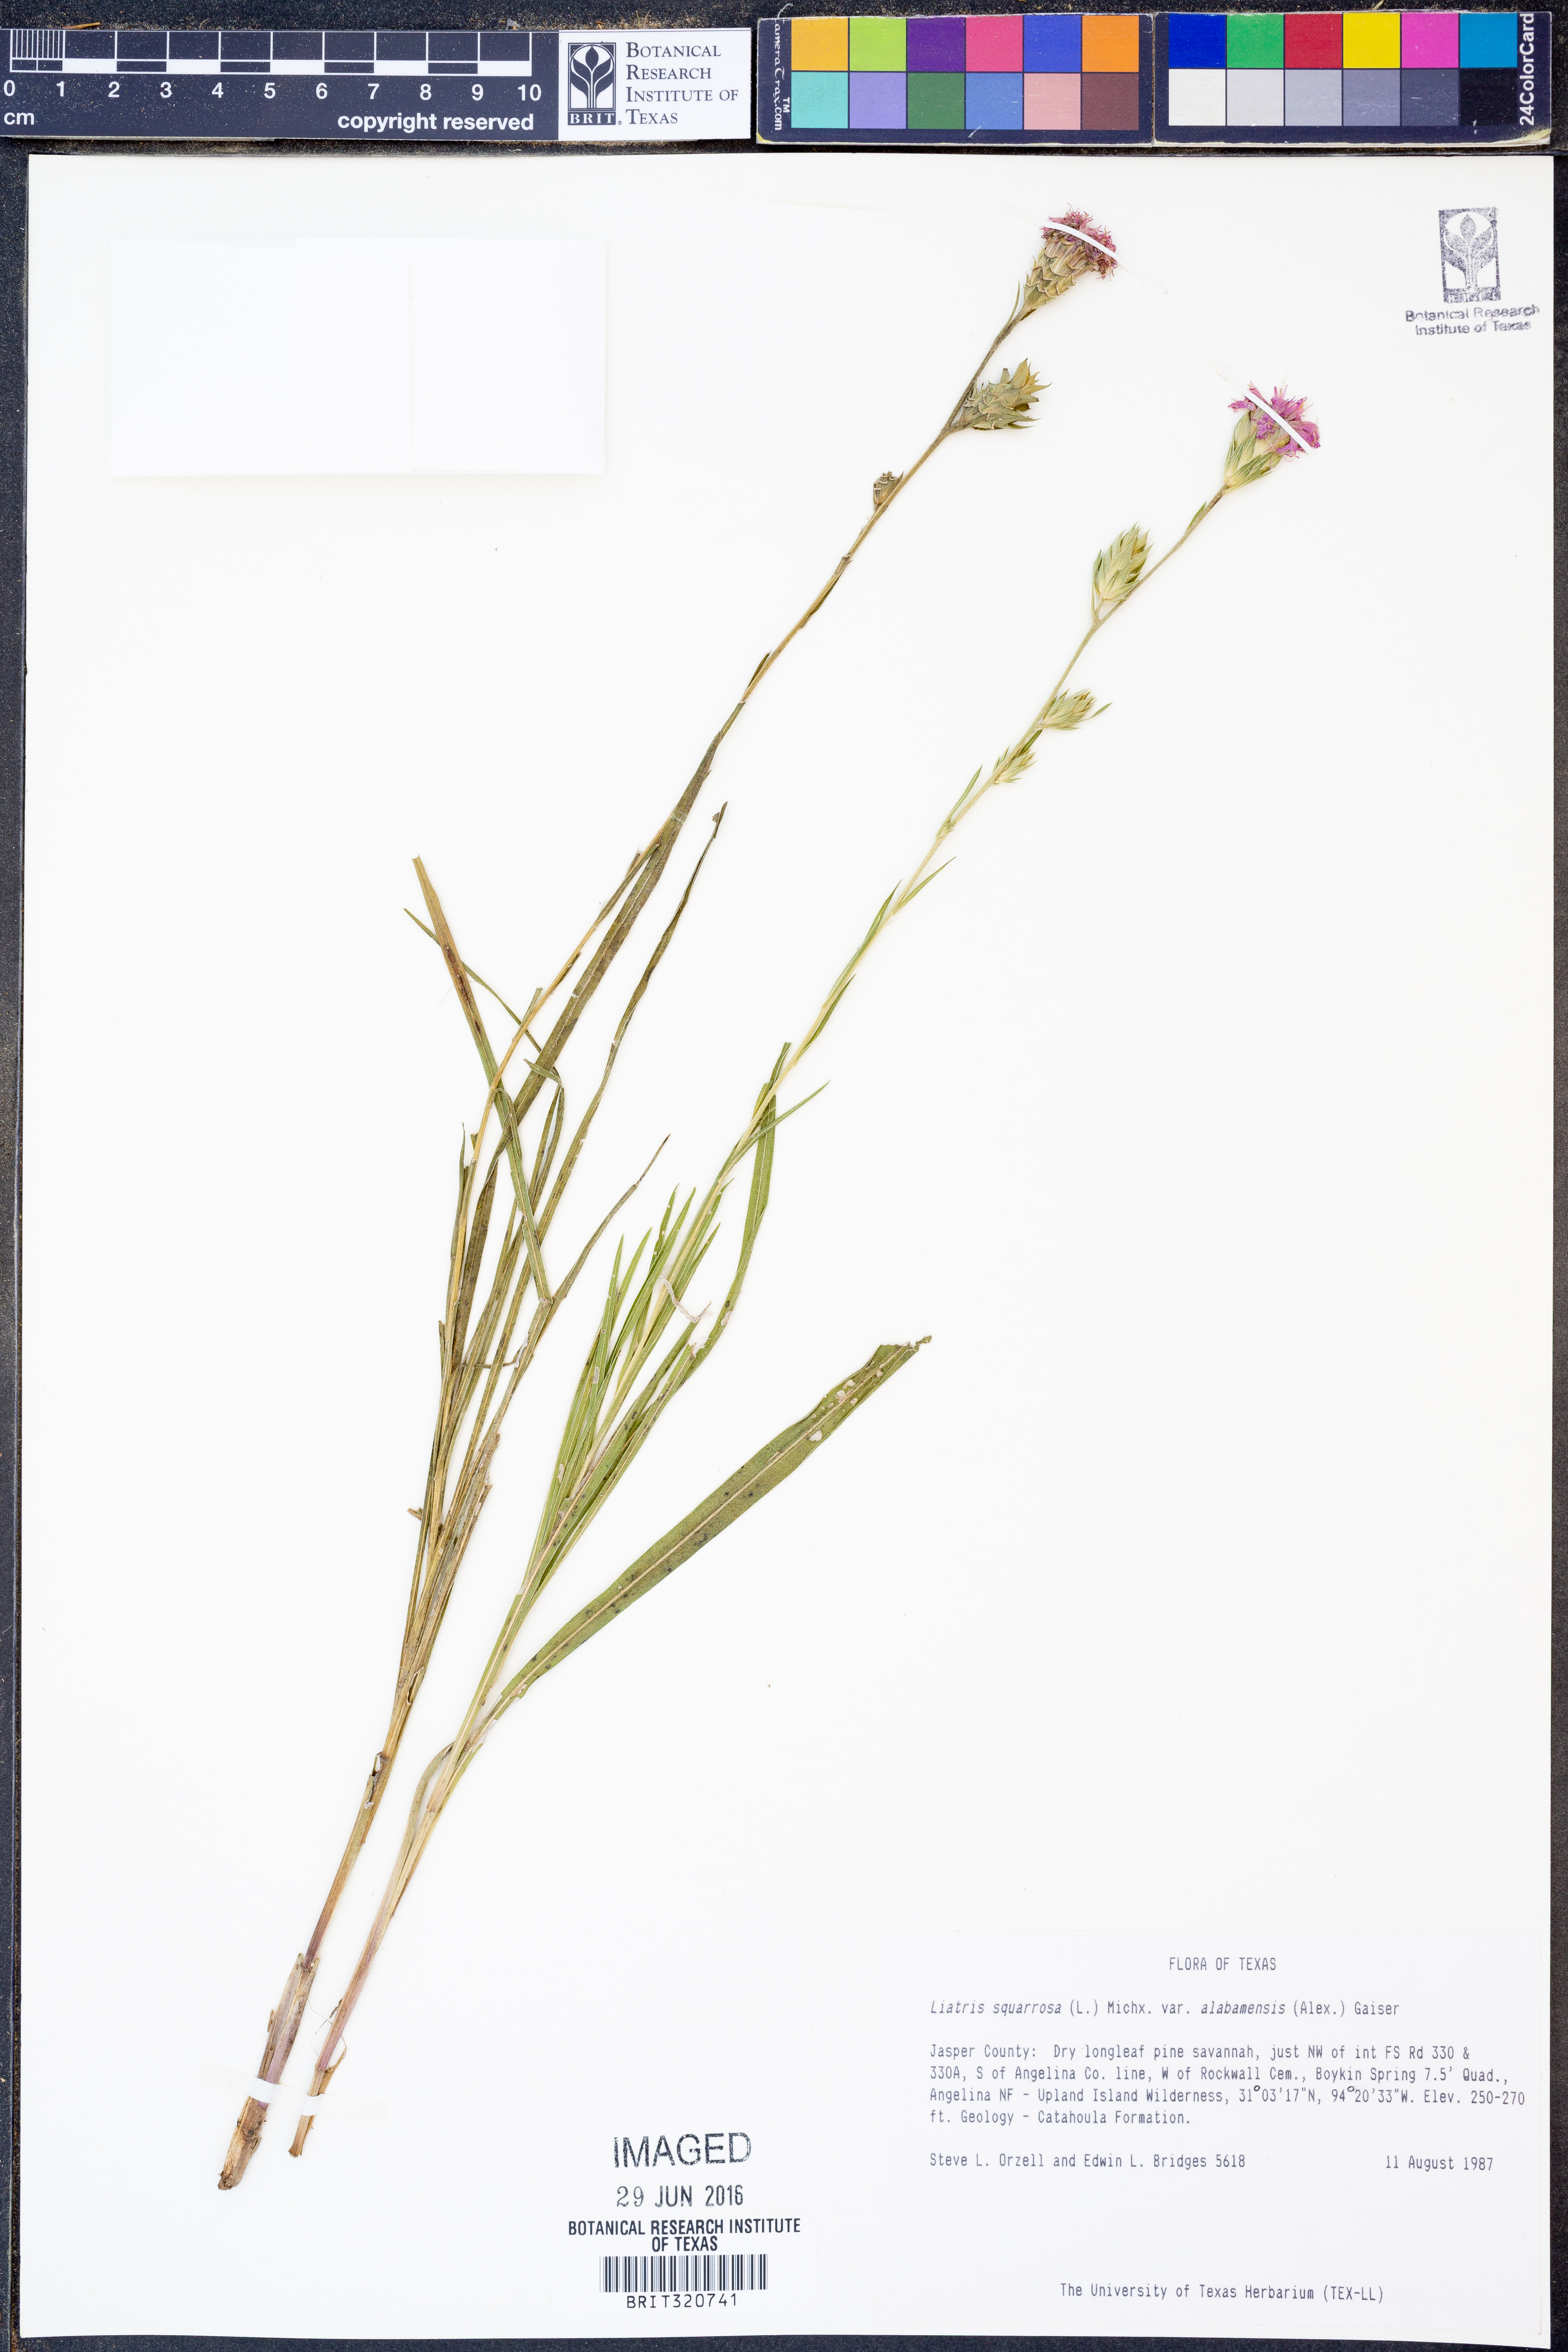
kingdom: Plantae
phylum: Tracheophyta
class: Magnoliopsida
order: Asterales
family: Asteraceae
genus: Liatris
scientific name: Liatris squarrosa
